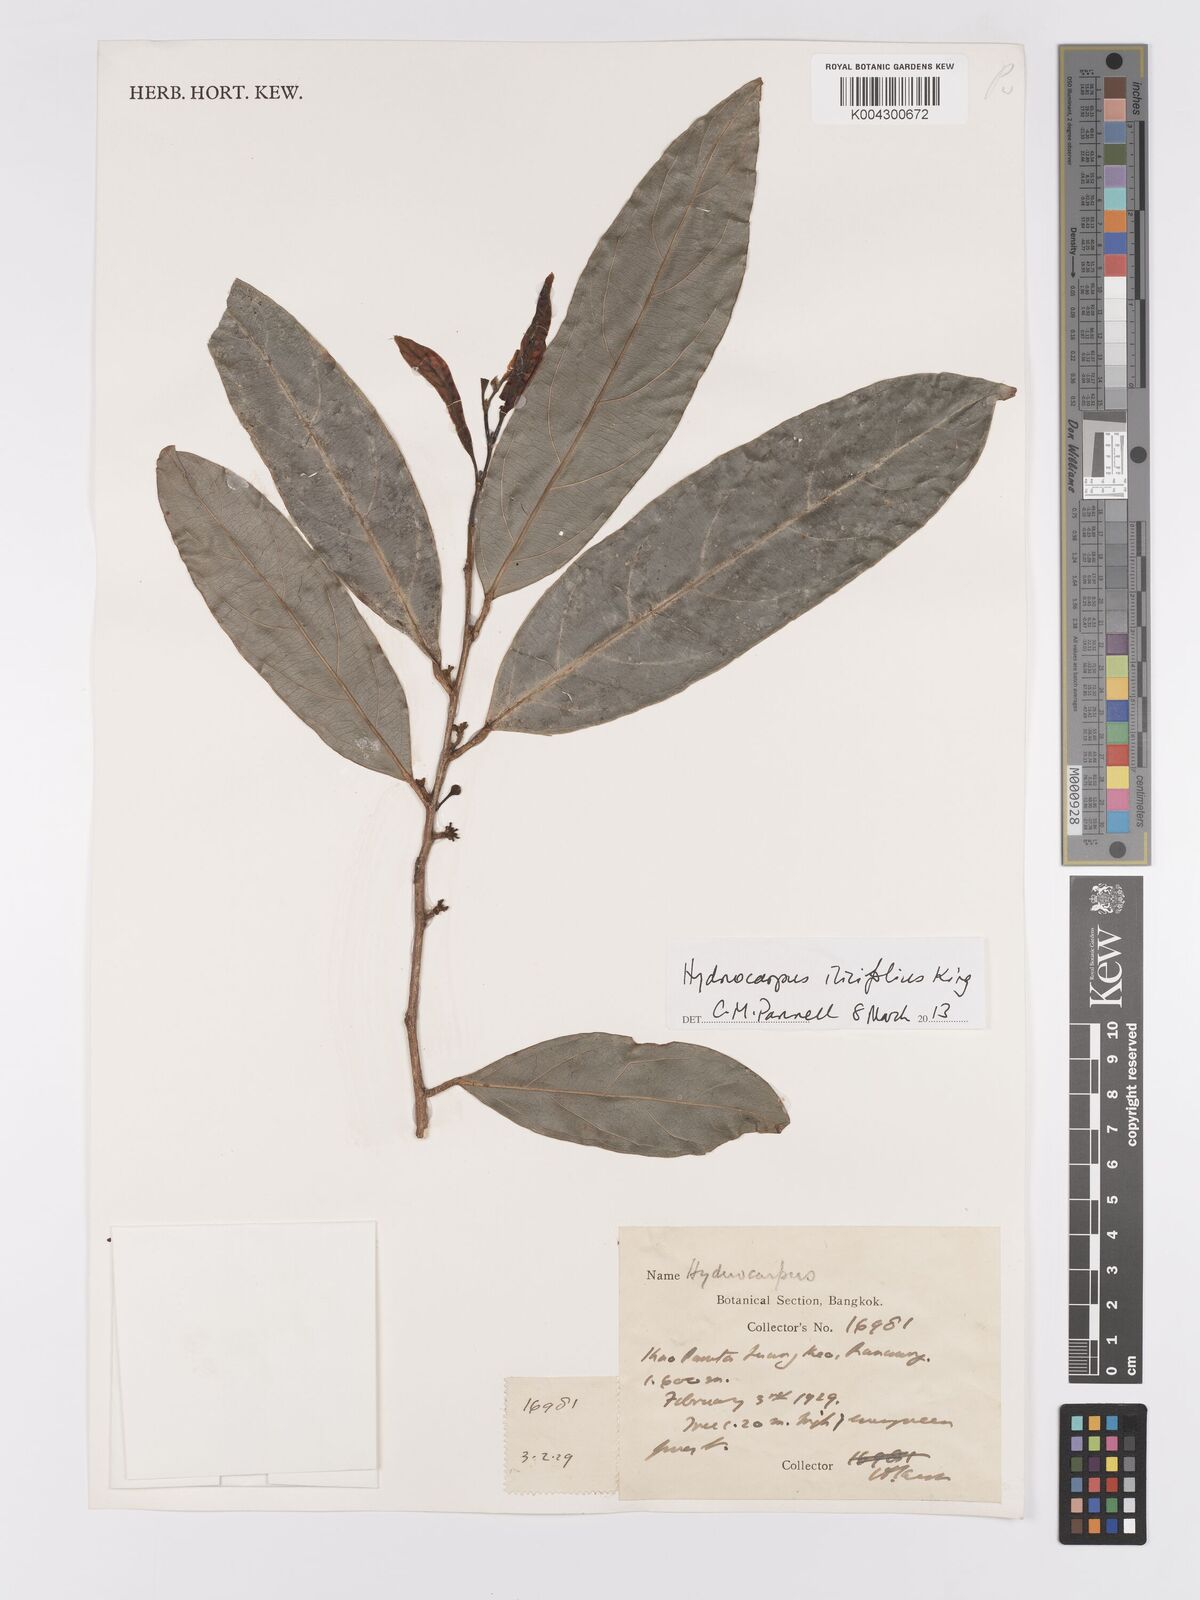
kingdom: Plantae
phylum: Tracheophyta
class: Magnoliopsida
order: Malpighiales
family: Achariaceae
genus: Hydnocarpus
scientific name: Hydnocarpus ilicifolius
